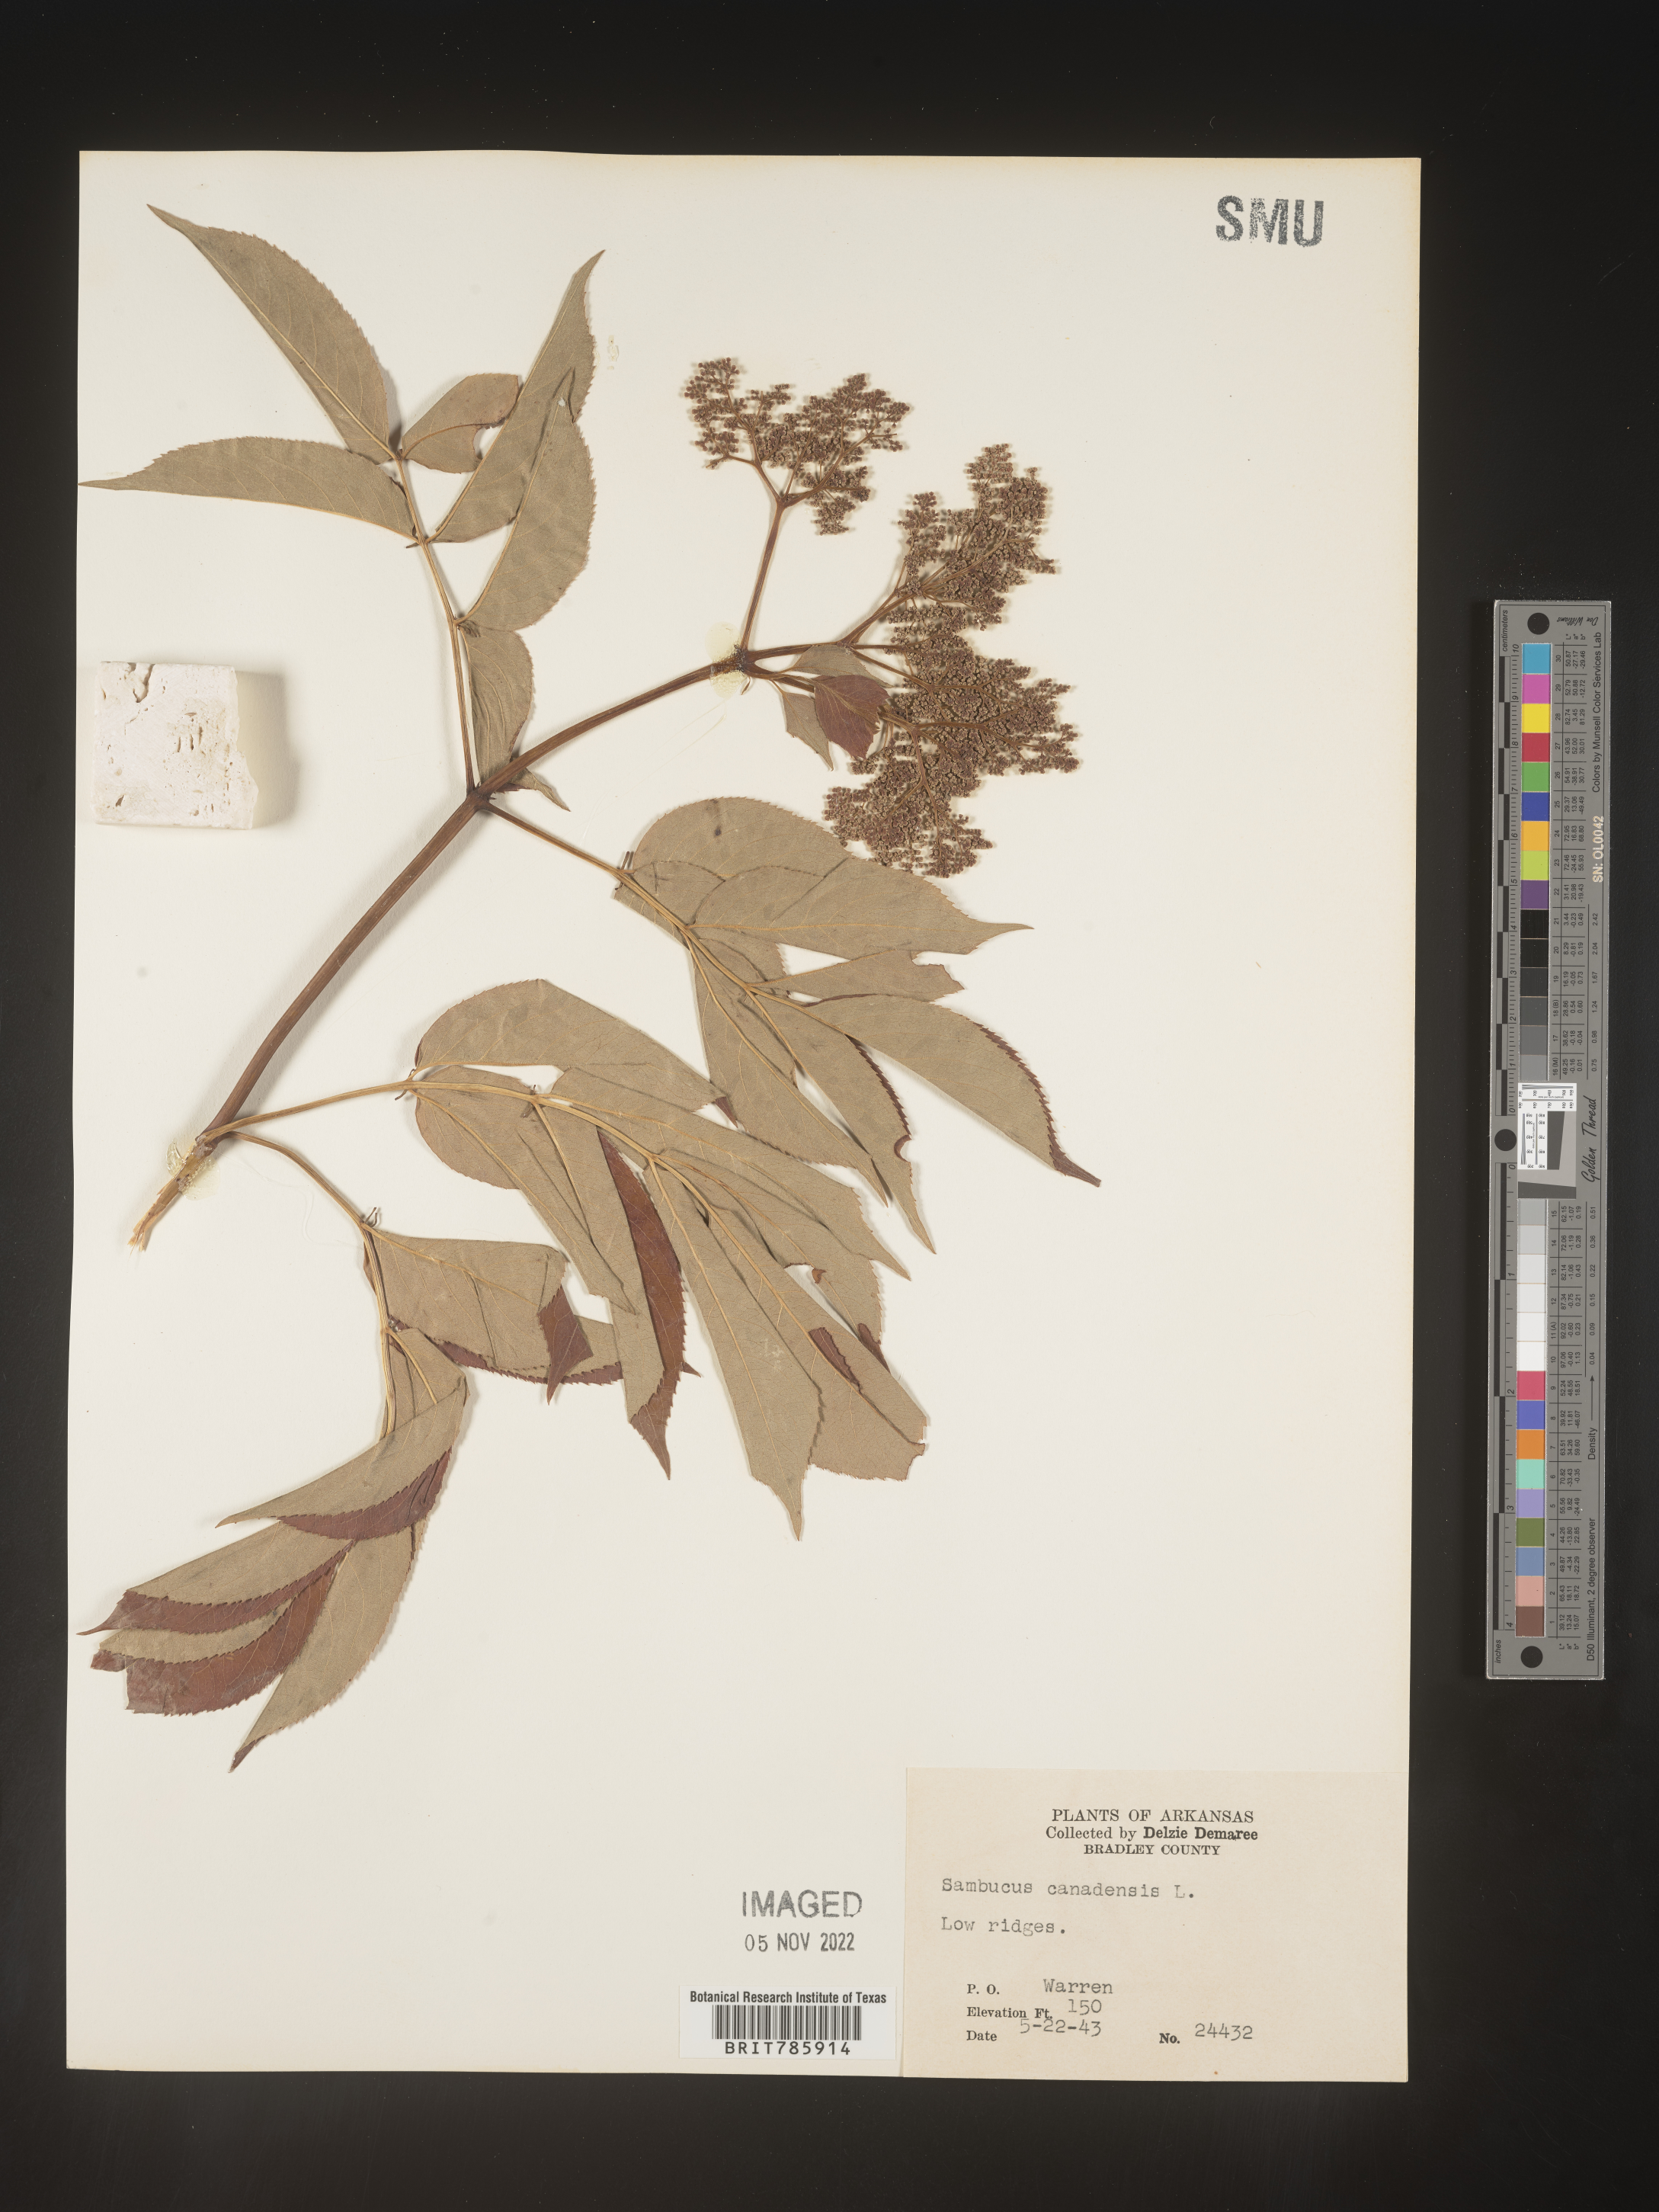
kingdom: Plantae
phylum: Tracheophyta
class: Magnoliopsida
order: Dipsacales
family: Viburnaceae
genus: Sambucus
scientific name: Sambucus nigra
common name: Elder
